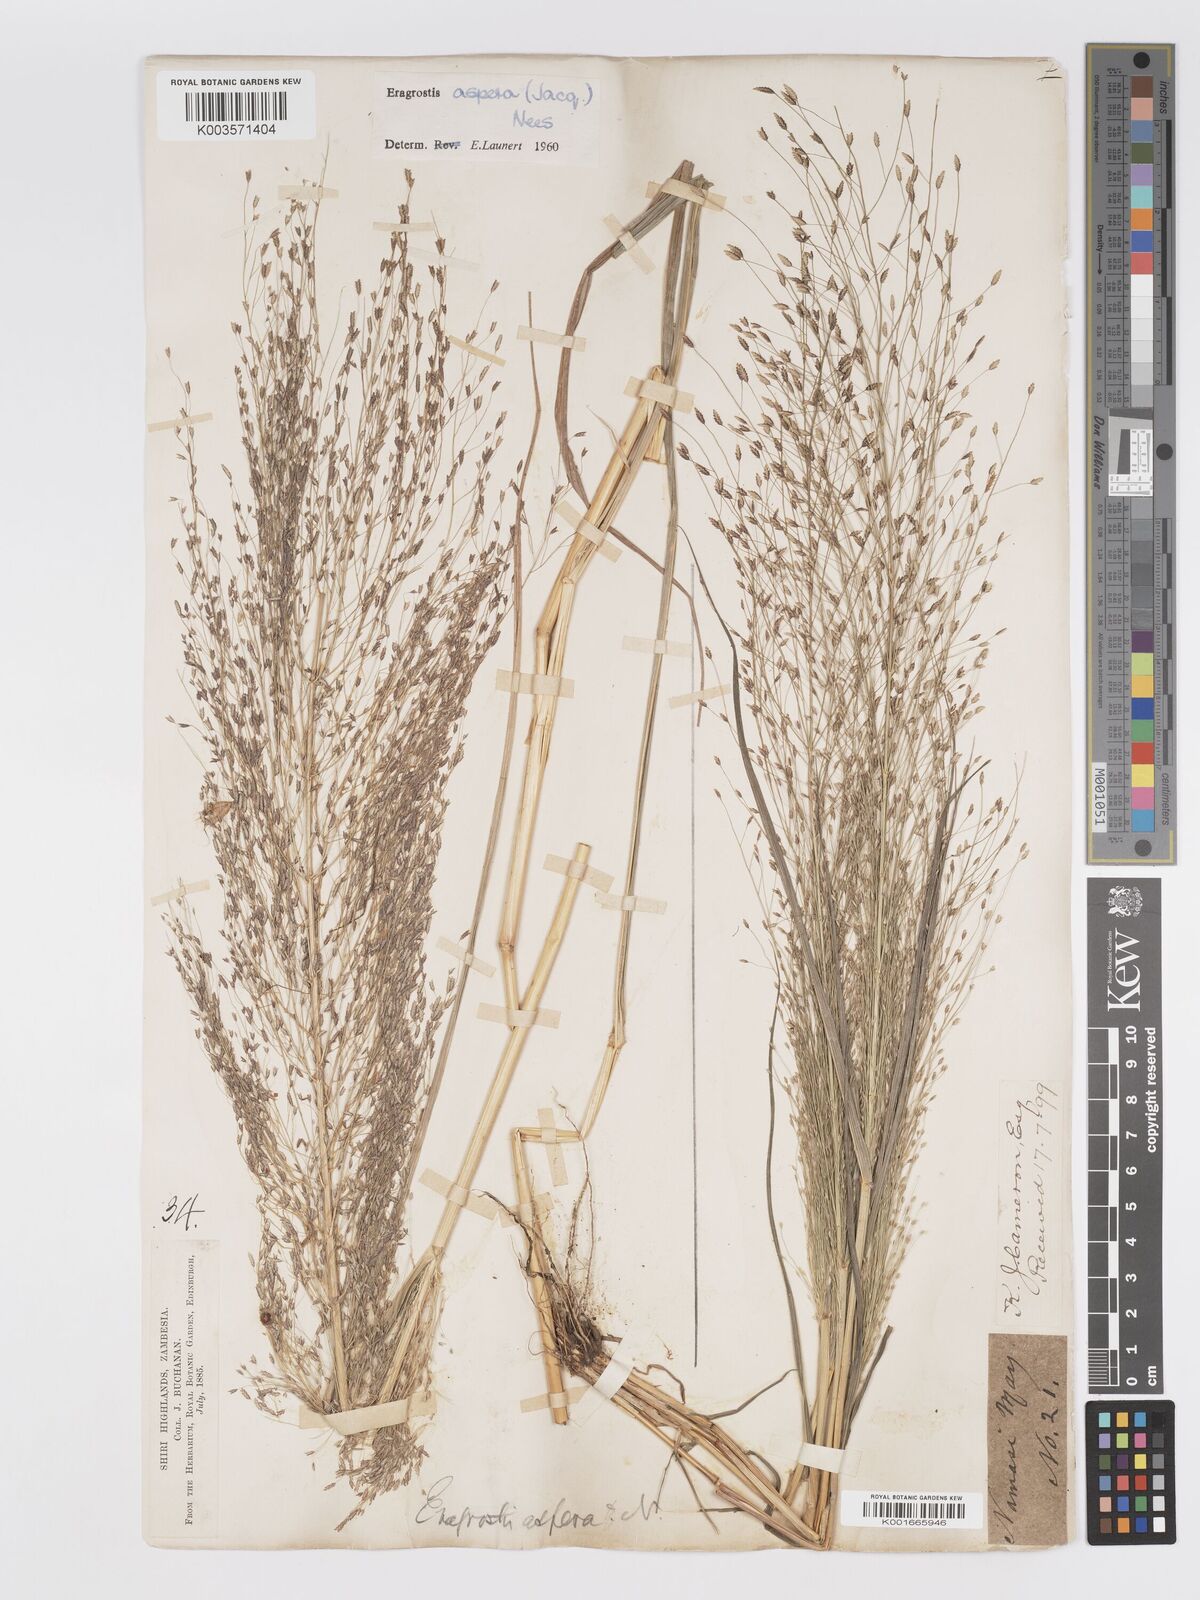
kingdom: Plantae
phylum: Tracheophyta
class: Liliopsida
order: Poales
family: Poaceae
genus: Eragrostis
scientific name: Eragrostis aspera
